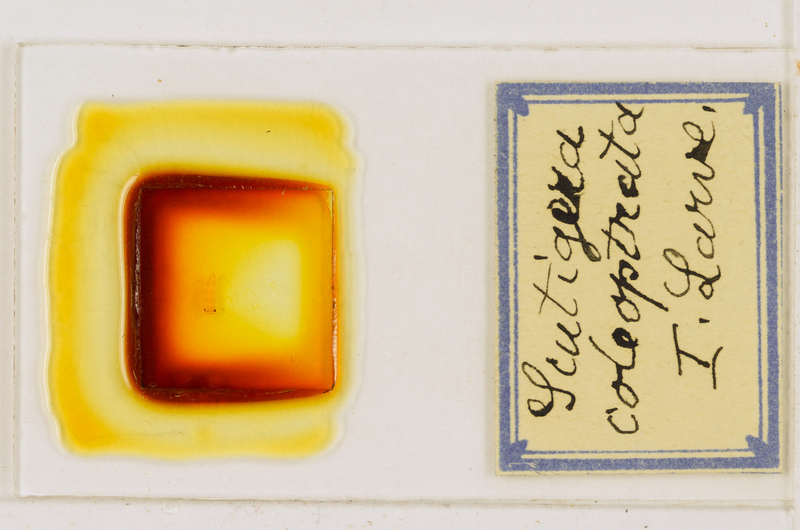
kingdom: Animalia
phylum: Arthropoda
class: Chilopoda
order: Scutigeromorpha
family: Scutigeridae
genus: Scutigera
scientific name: Scutigera coleoptrata
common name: House centipede
